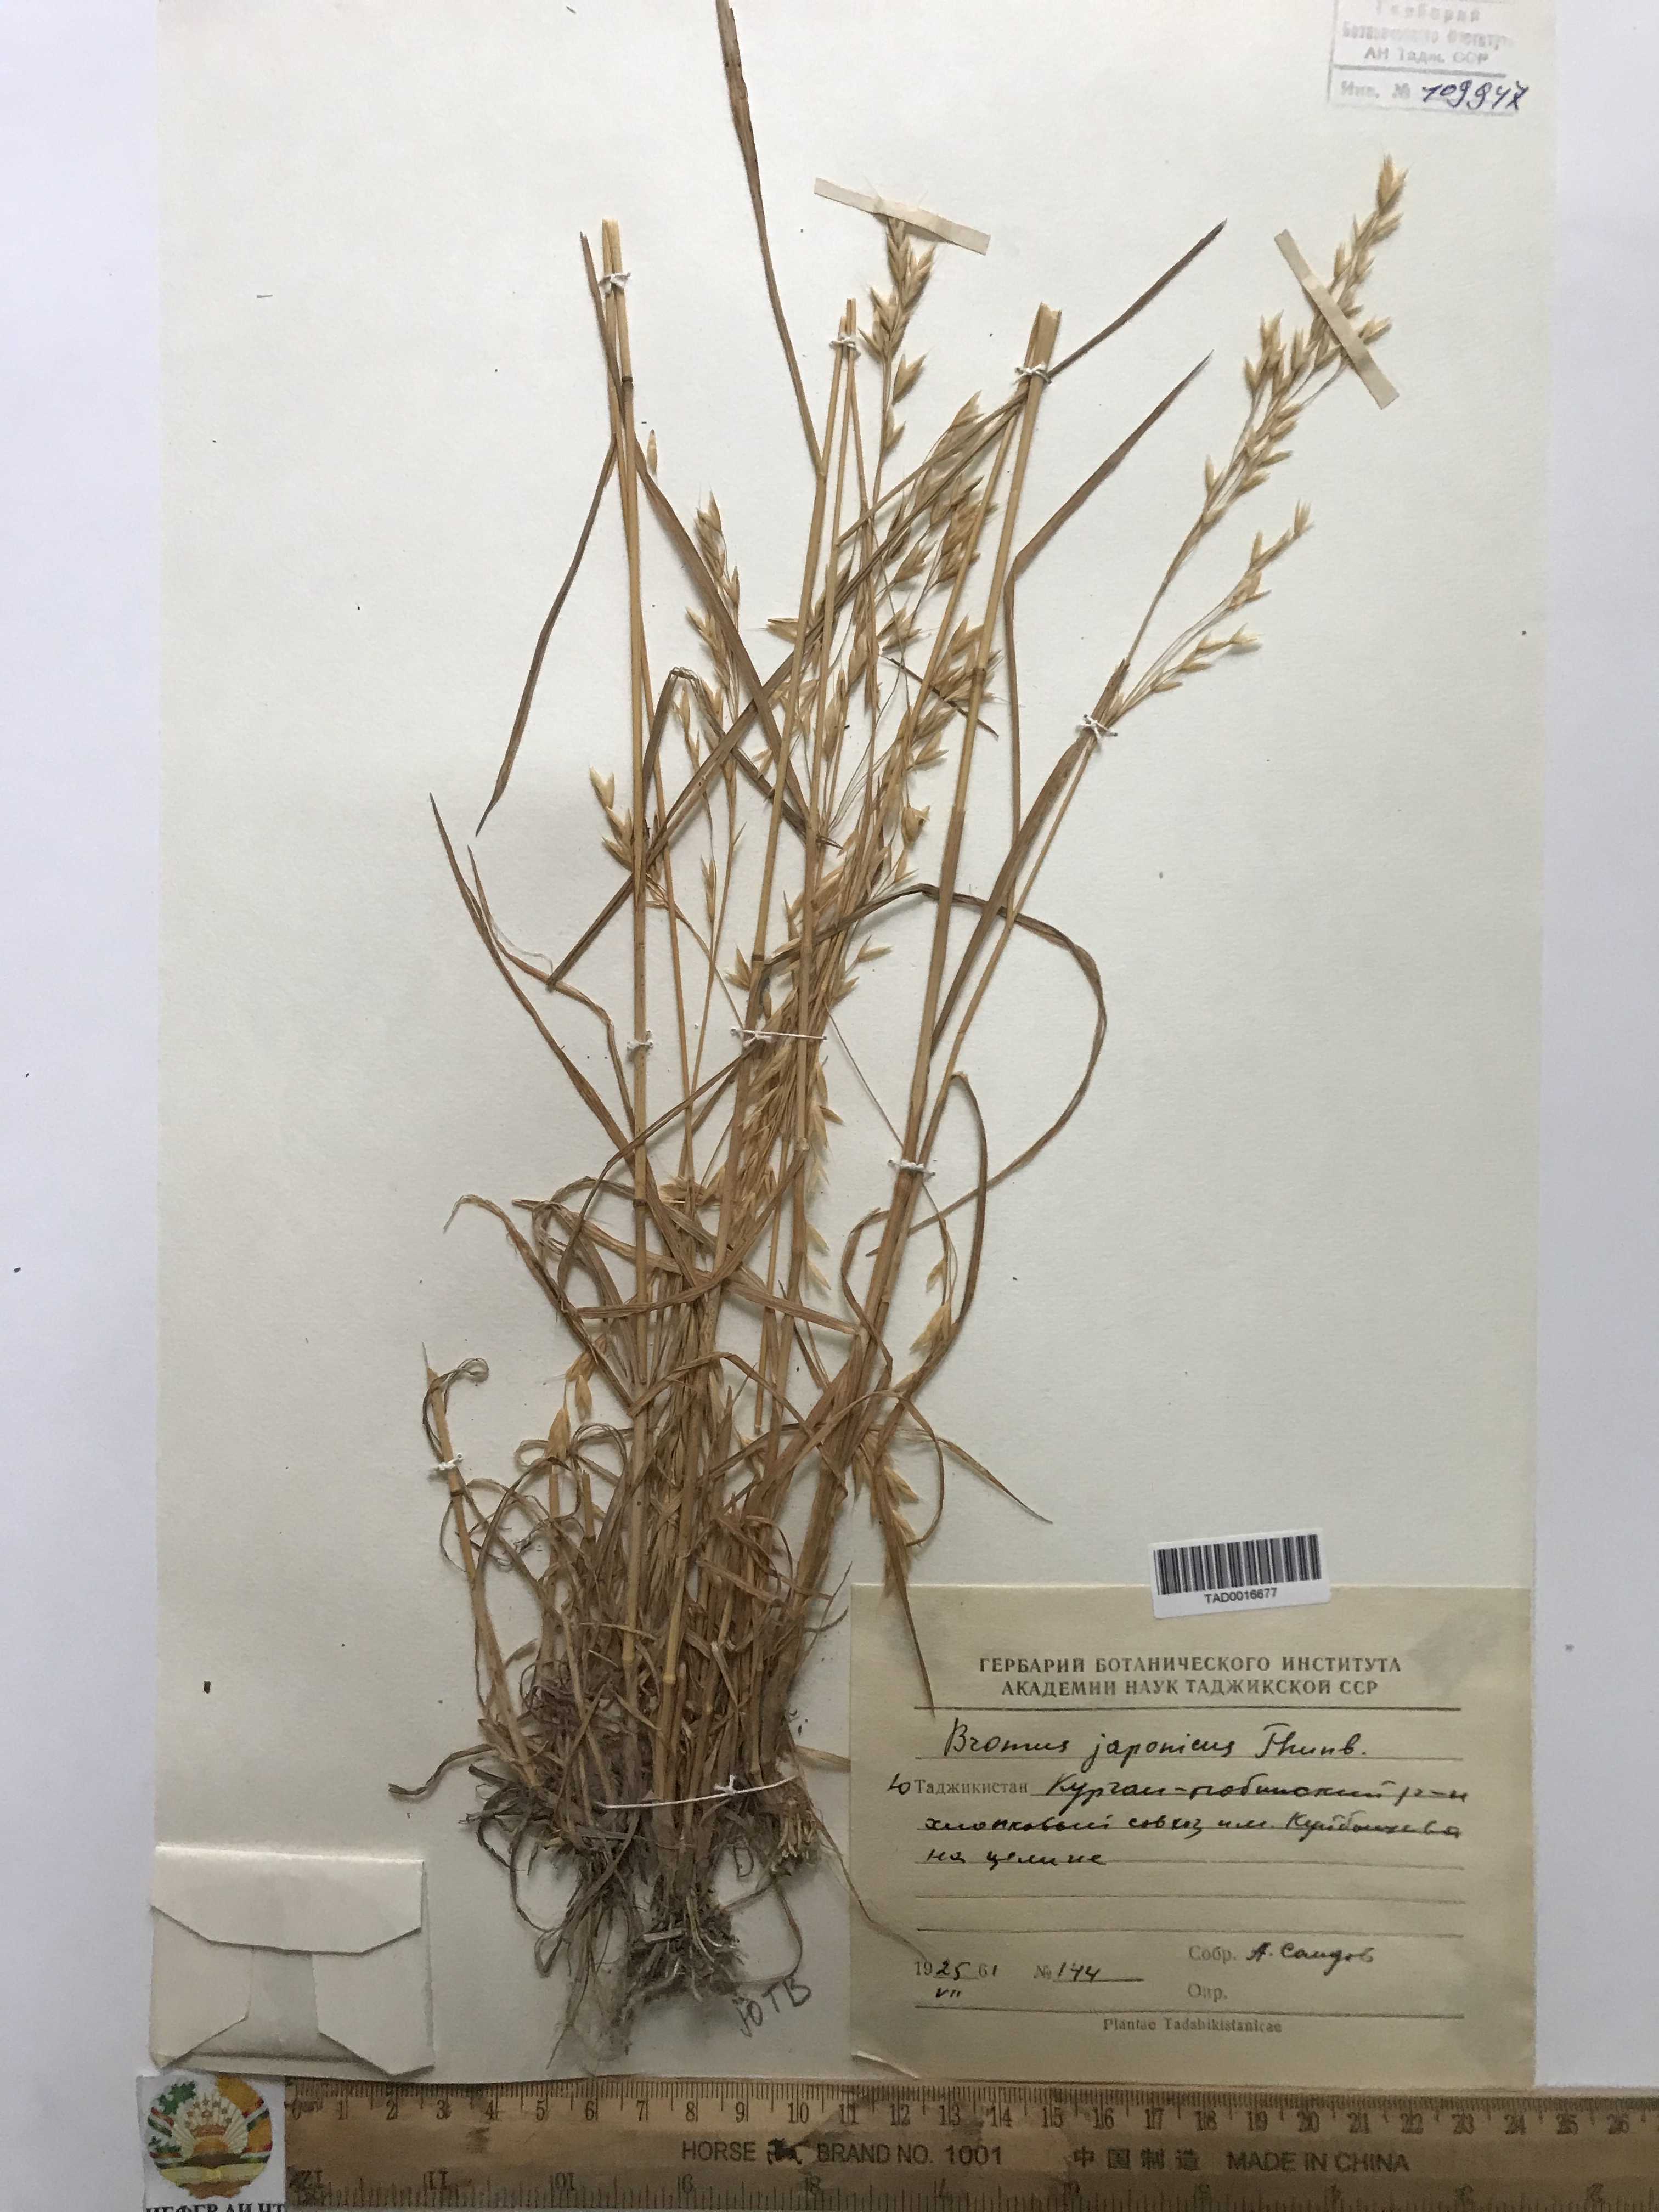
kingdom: Plantae
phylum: Tracheophyta
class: Liliopsida
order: Poales
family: Poaceae
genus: Bromus
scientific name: Bromus japonicus
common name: Japanese brome
